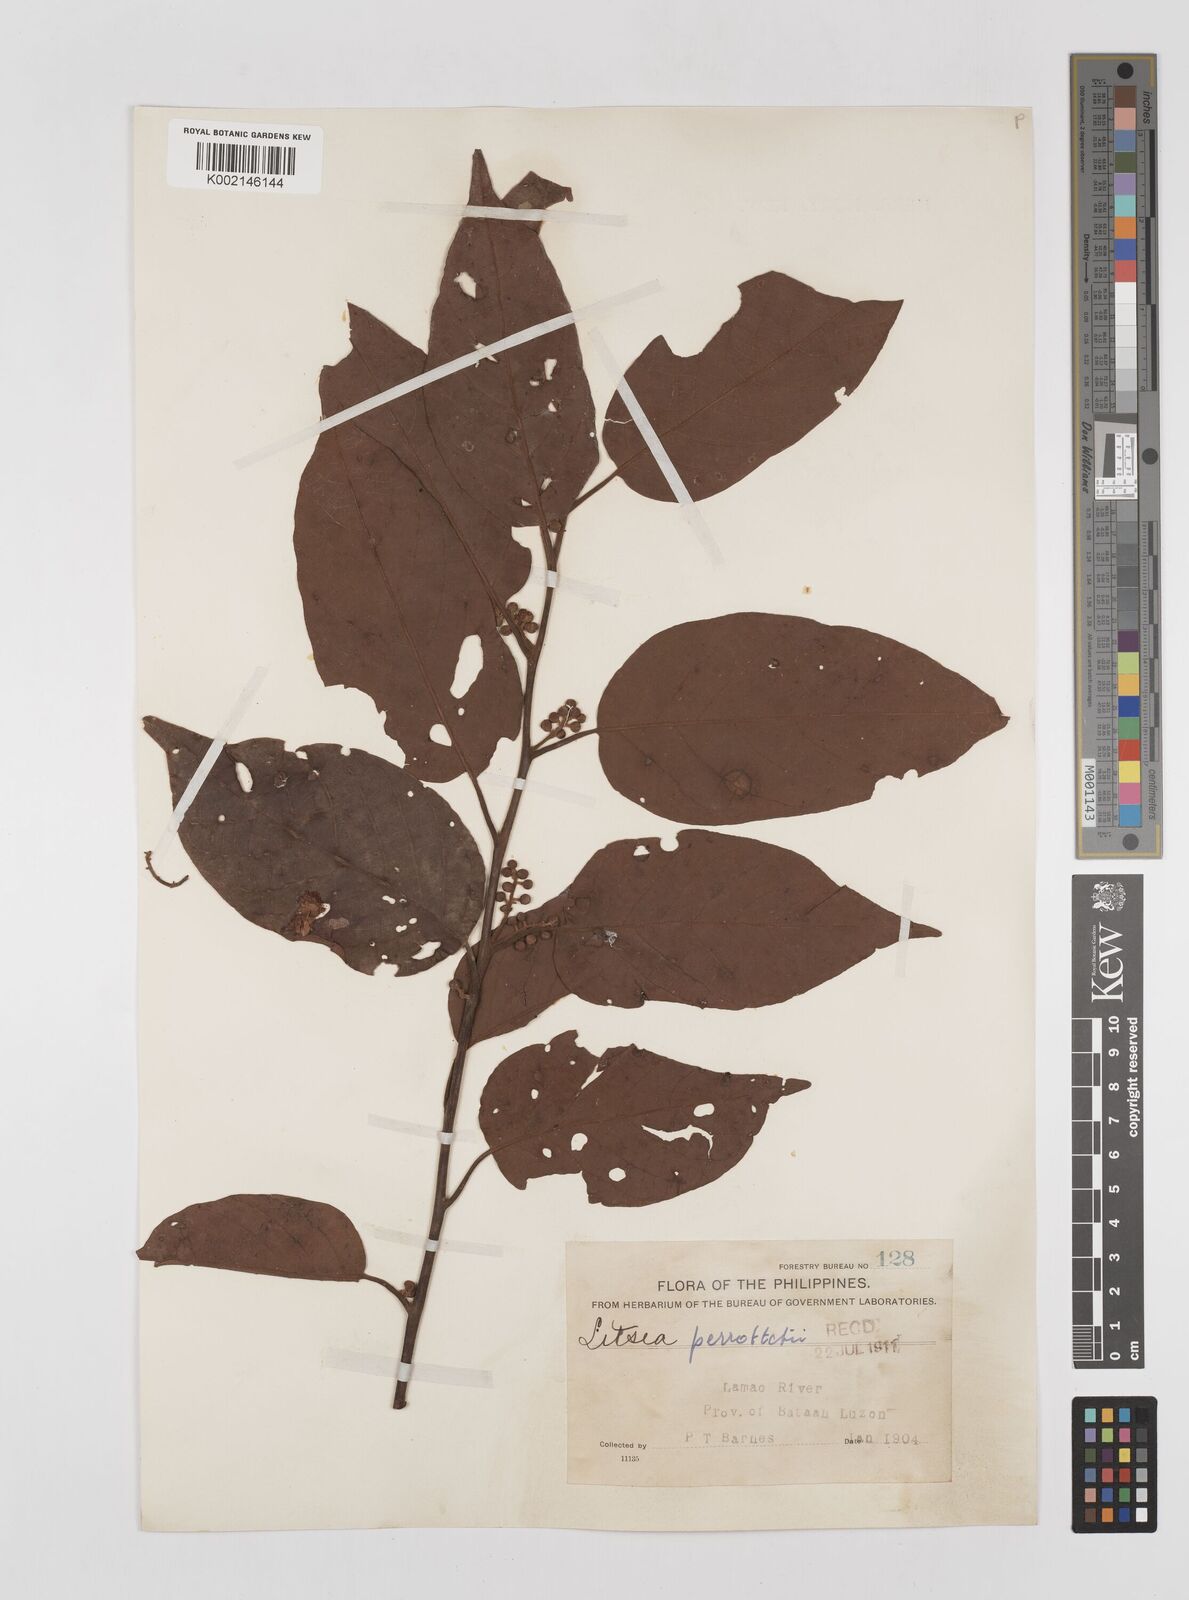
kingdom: Plantae
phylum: Tracheophyta
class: Magnoliopsida
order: Laurales
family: Lauraceae
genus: Litsea
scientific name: Litsea cordata
